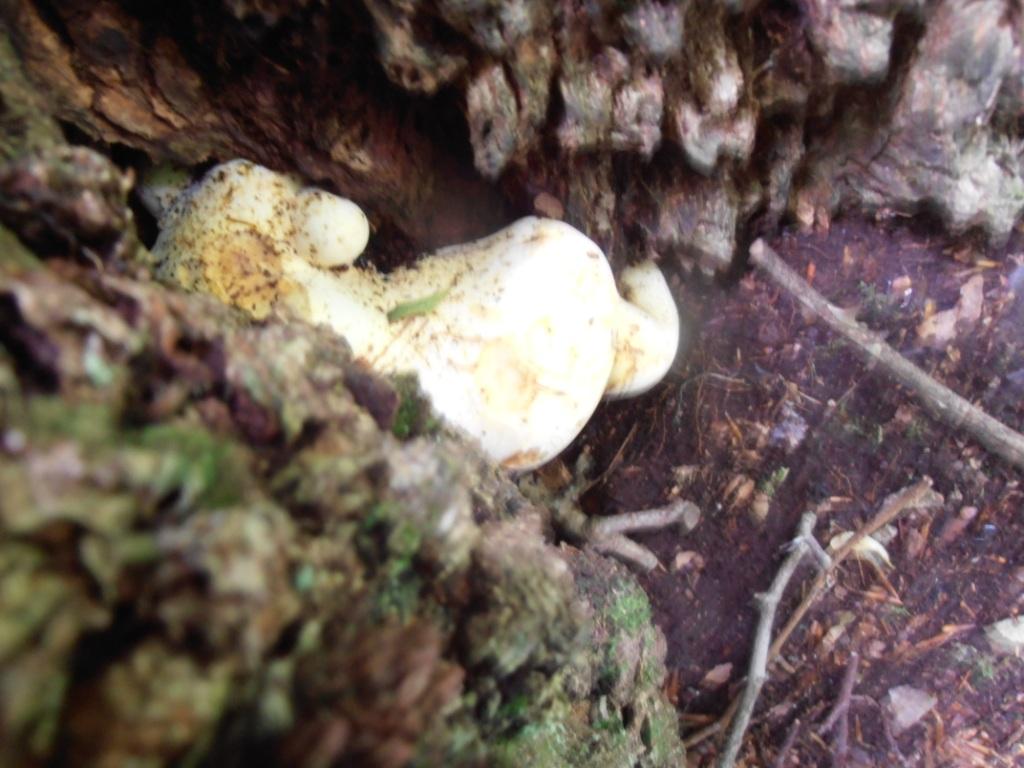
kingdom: Fungi
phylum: Basidiomycota
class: Agaricomycetes
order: Polyporales
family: Fomitopsidaceae
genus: Buglossoporus
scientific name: Buglossoporus quercinus
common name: egetunge
